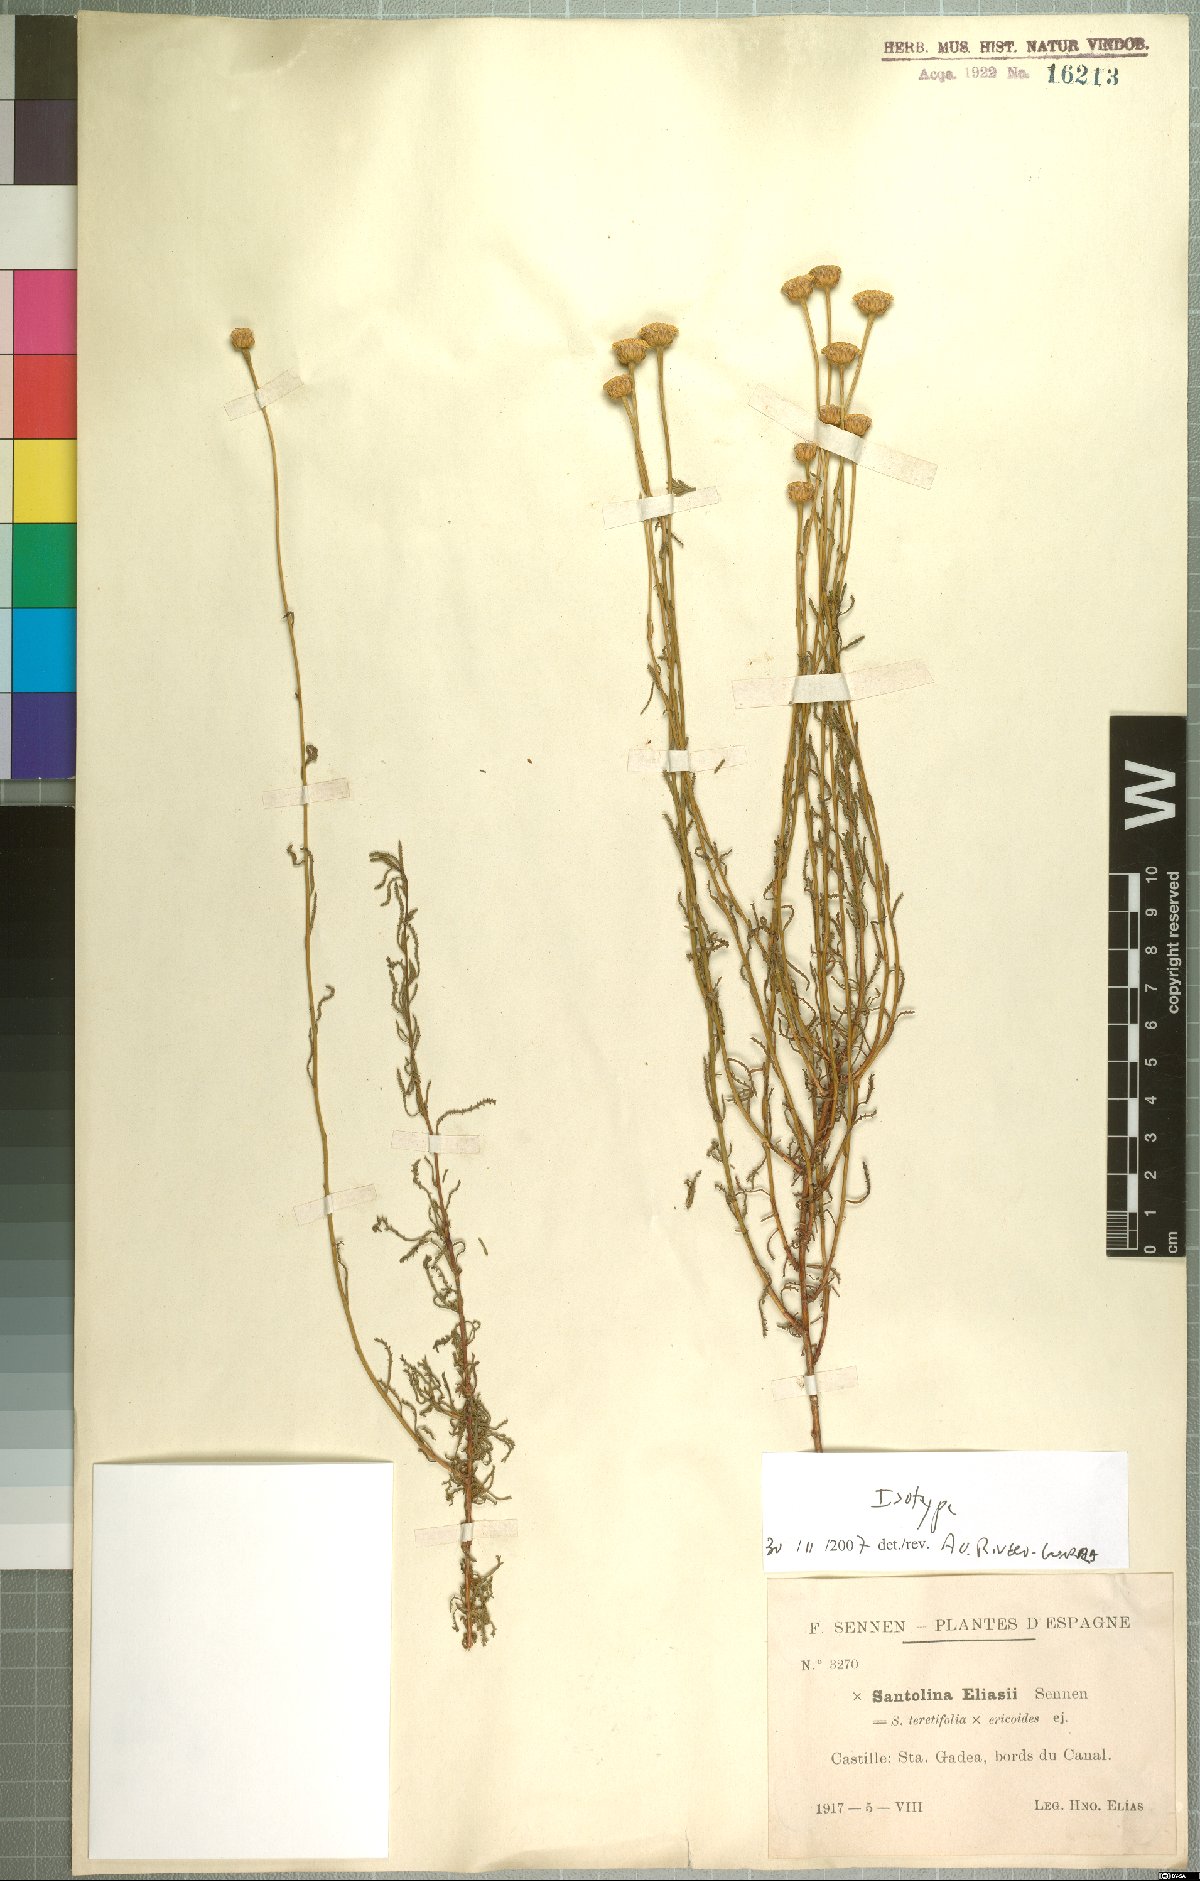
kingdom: Plantae
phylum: Tracheophyta
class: Magnoliopsida
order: Asterales
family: Asteraceae
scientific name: Asteraceae
